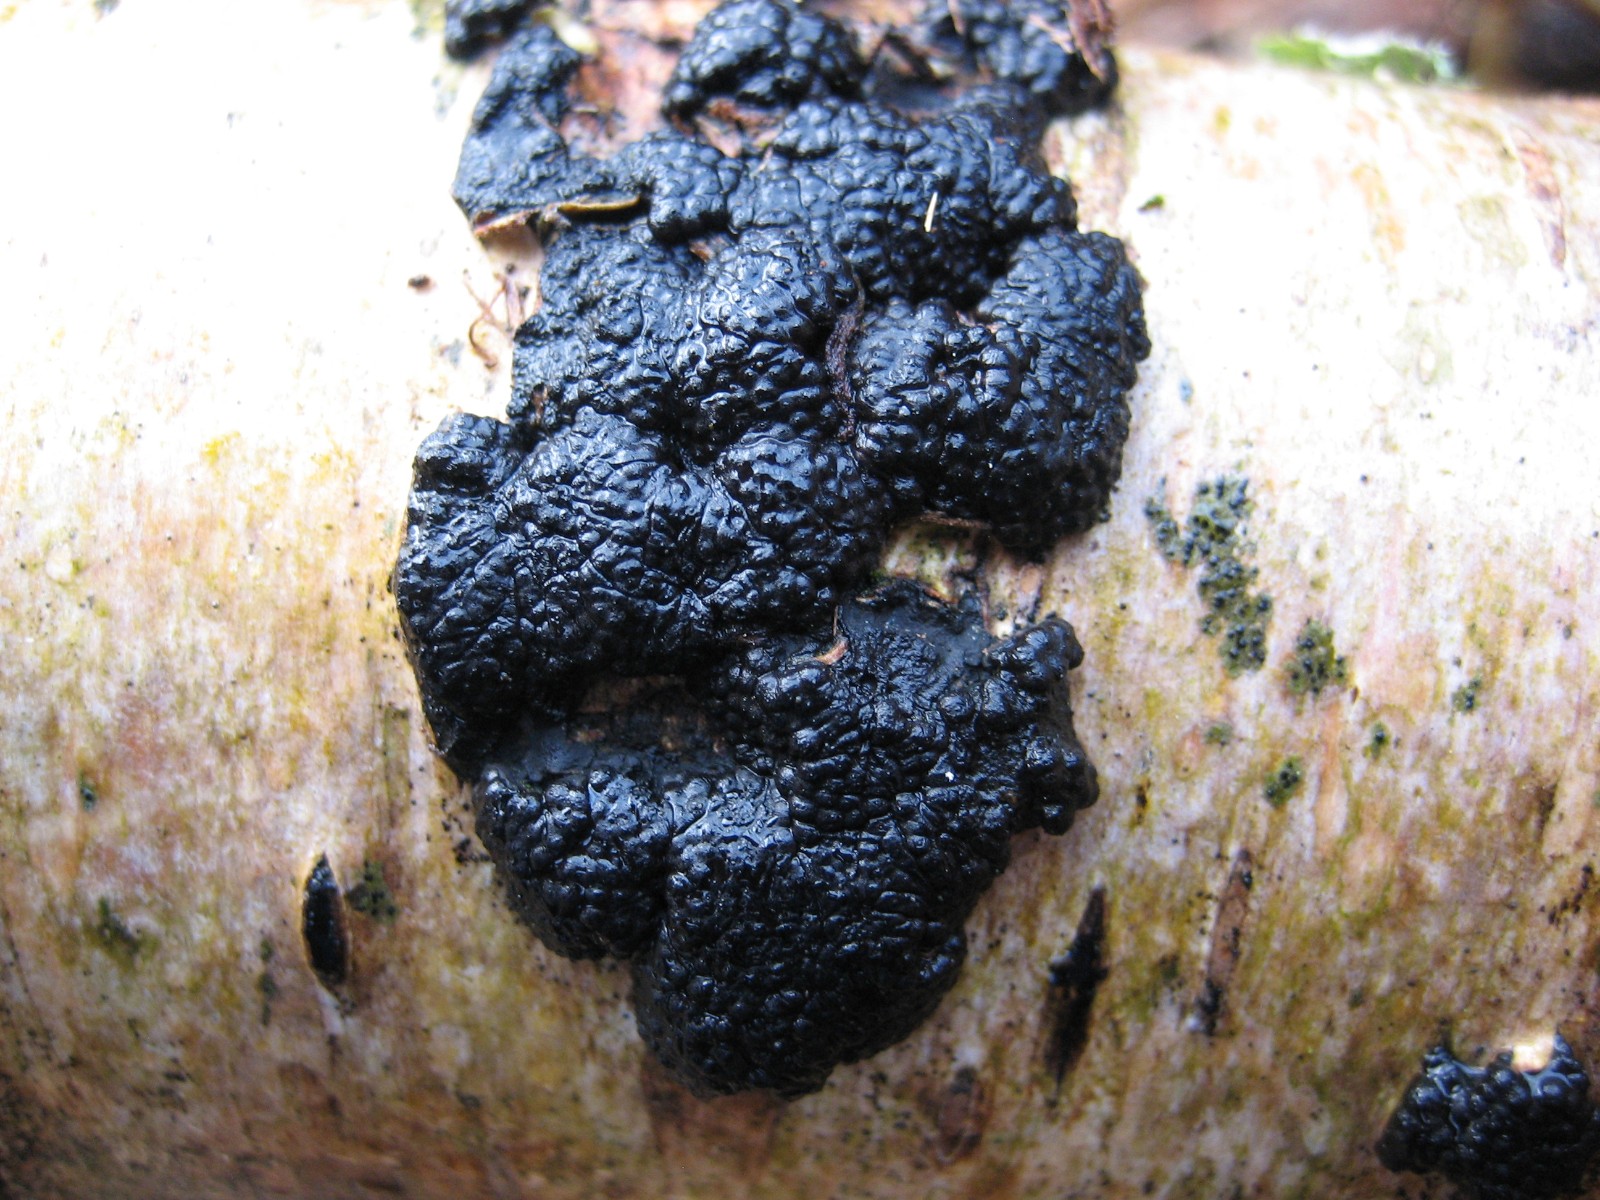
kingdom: Fungi
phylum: Ascomycota
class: Sordariomycetes
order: Xylariales
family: Hypoxylaceae
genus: Jackrogersella
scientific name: Jackrogersella multiformis
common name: foranderlig kulbær
